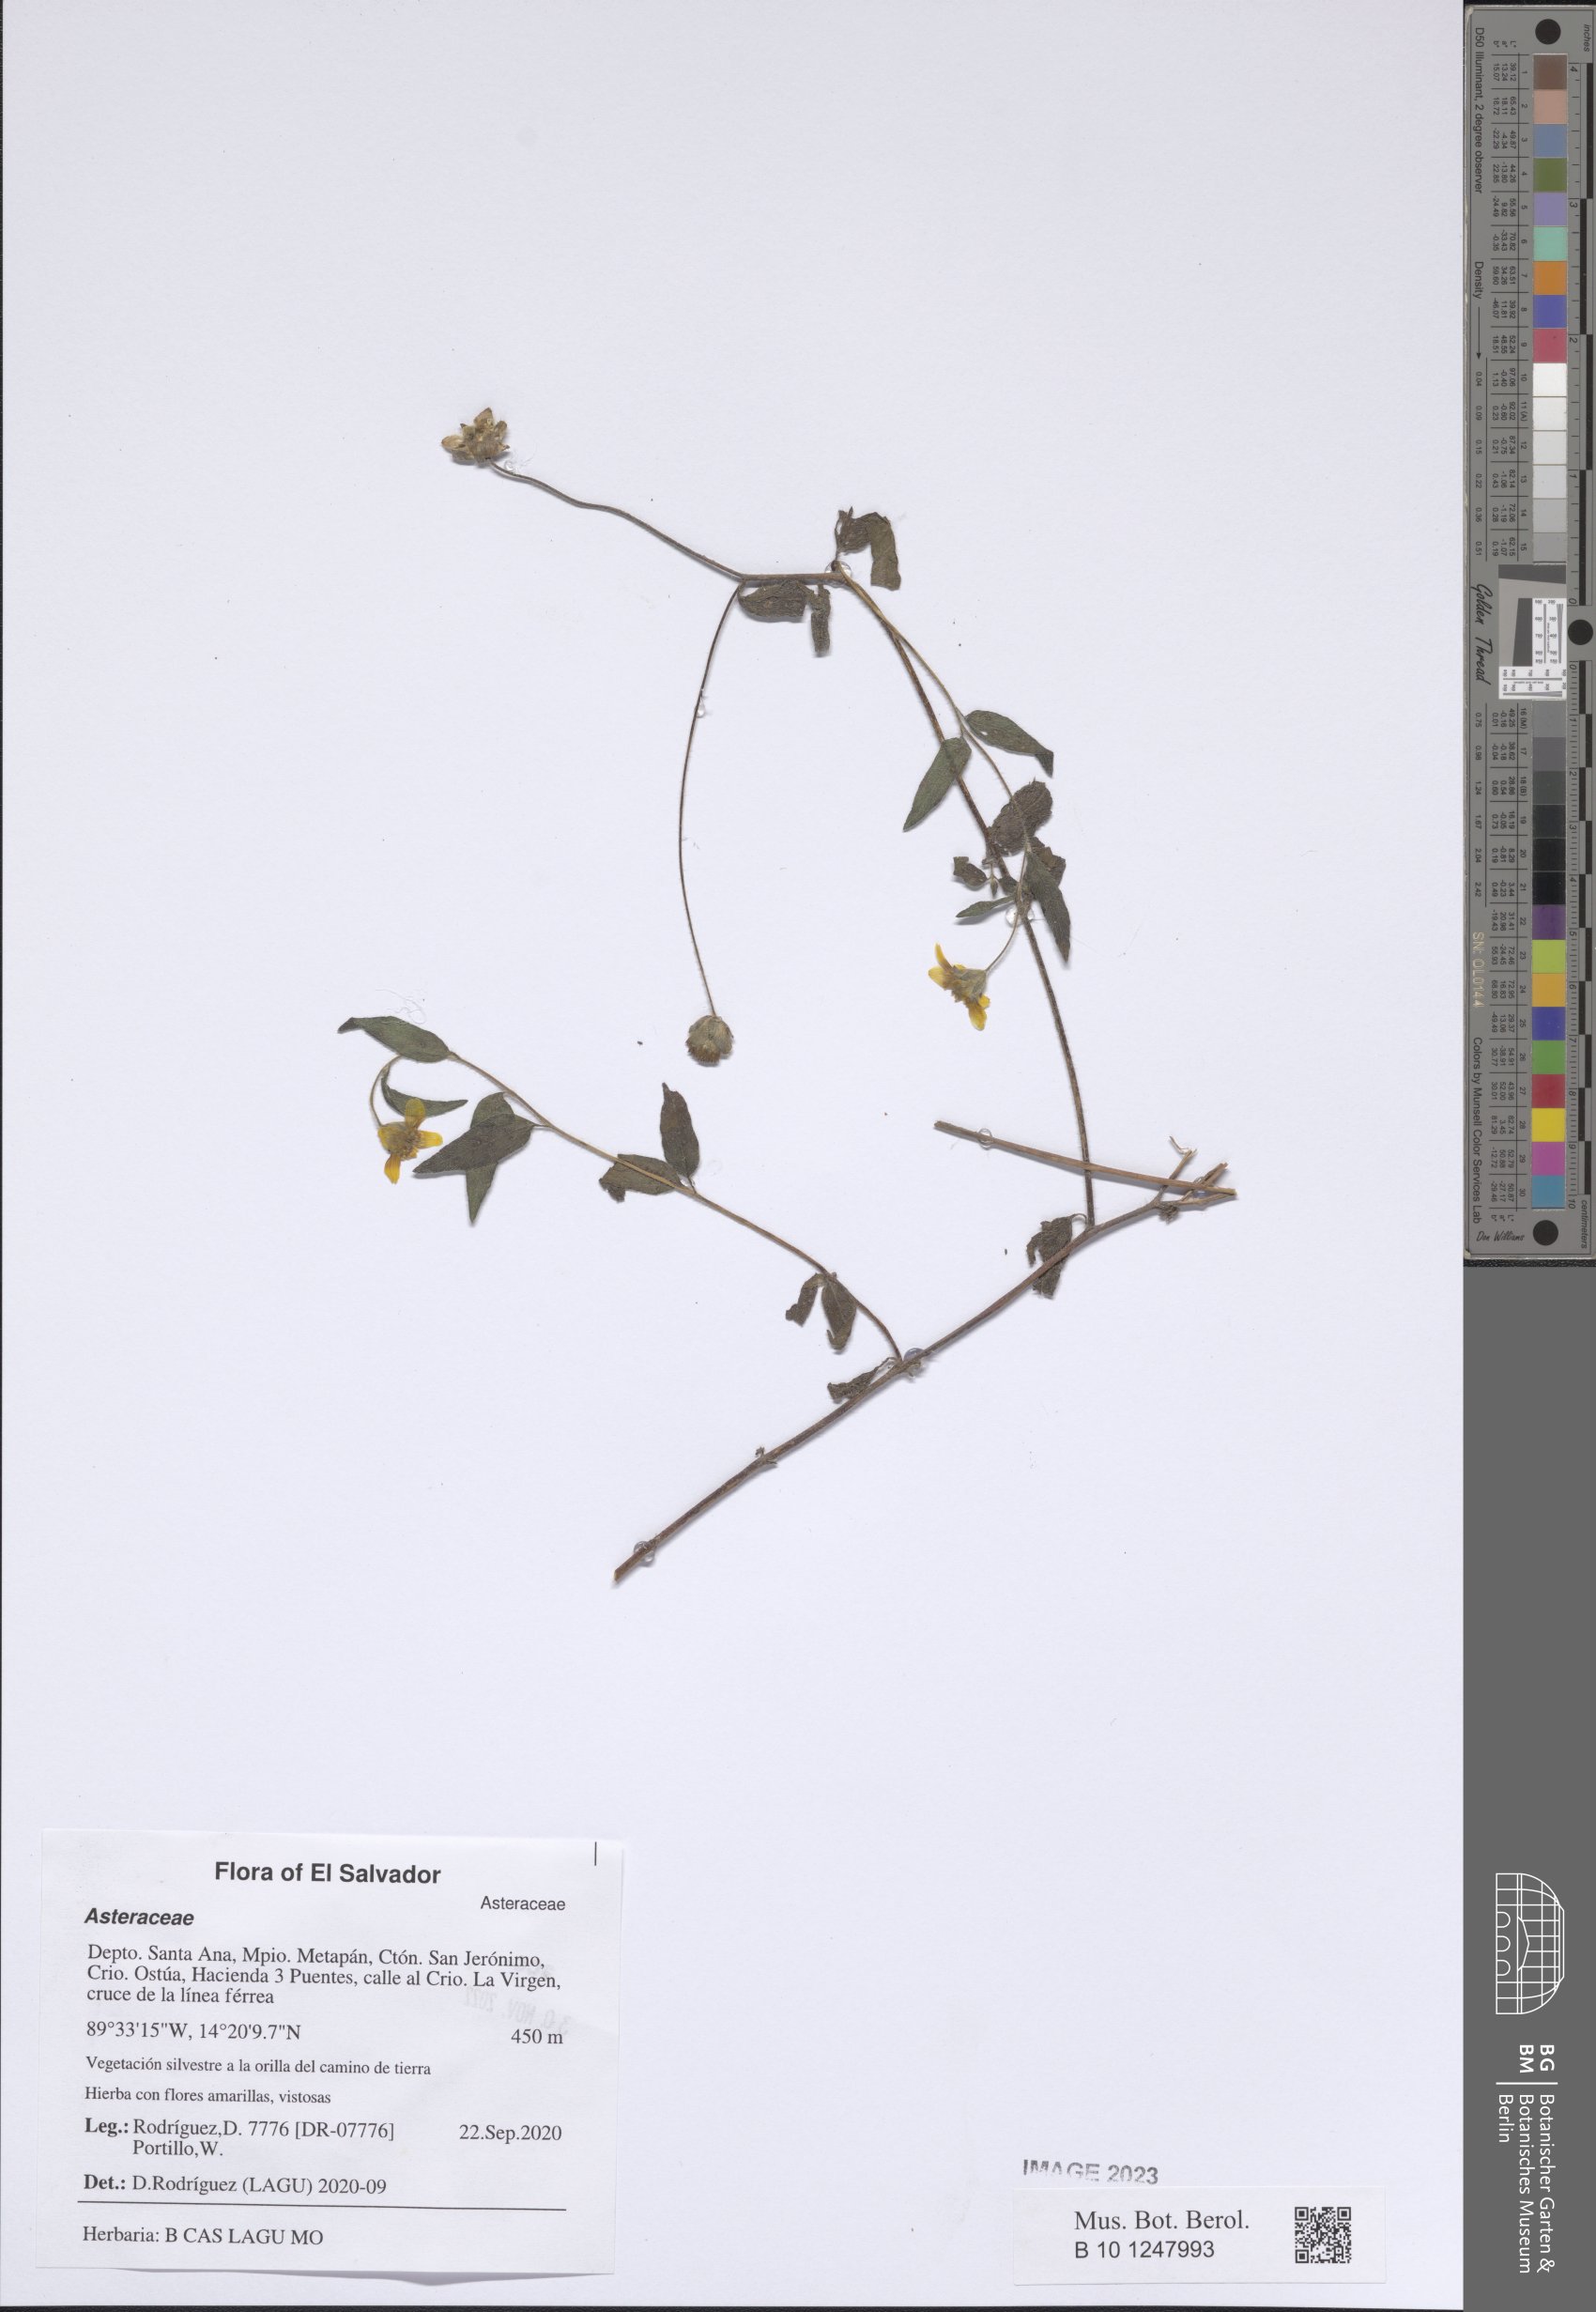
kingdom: Plantae
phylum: Tracheophyta
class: Magnoliopsida
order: Asterales
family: Asteraceae
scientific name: Asteraceae
